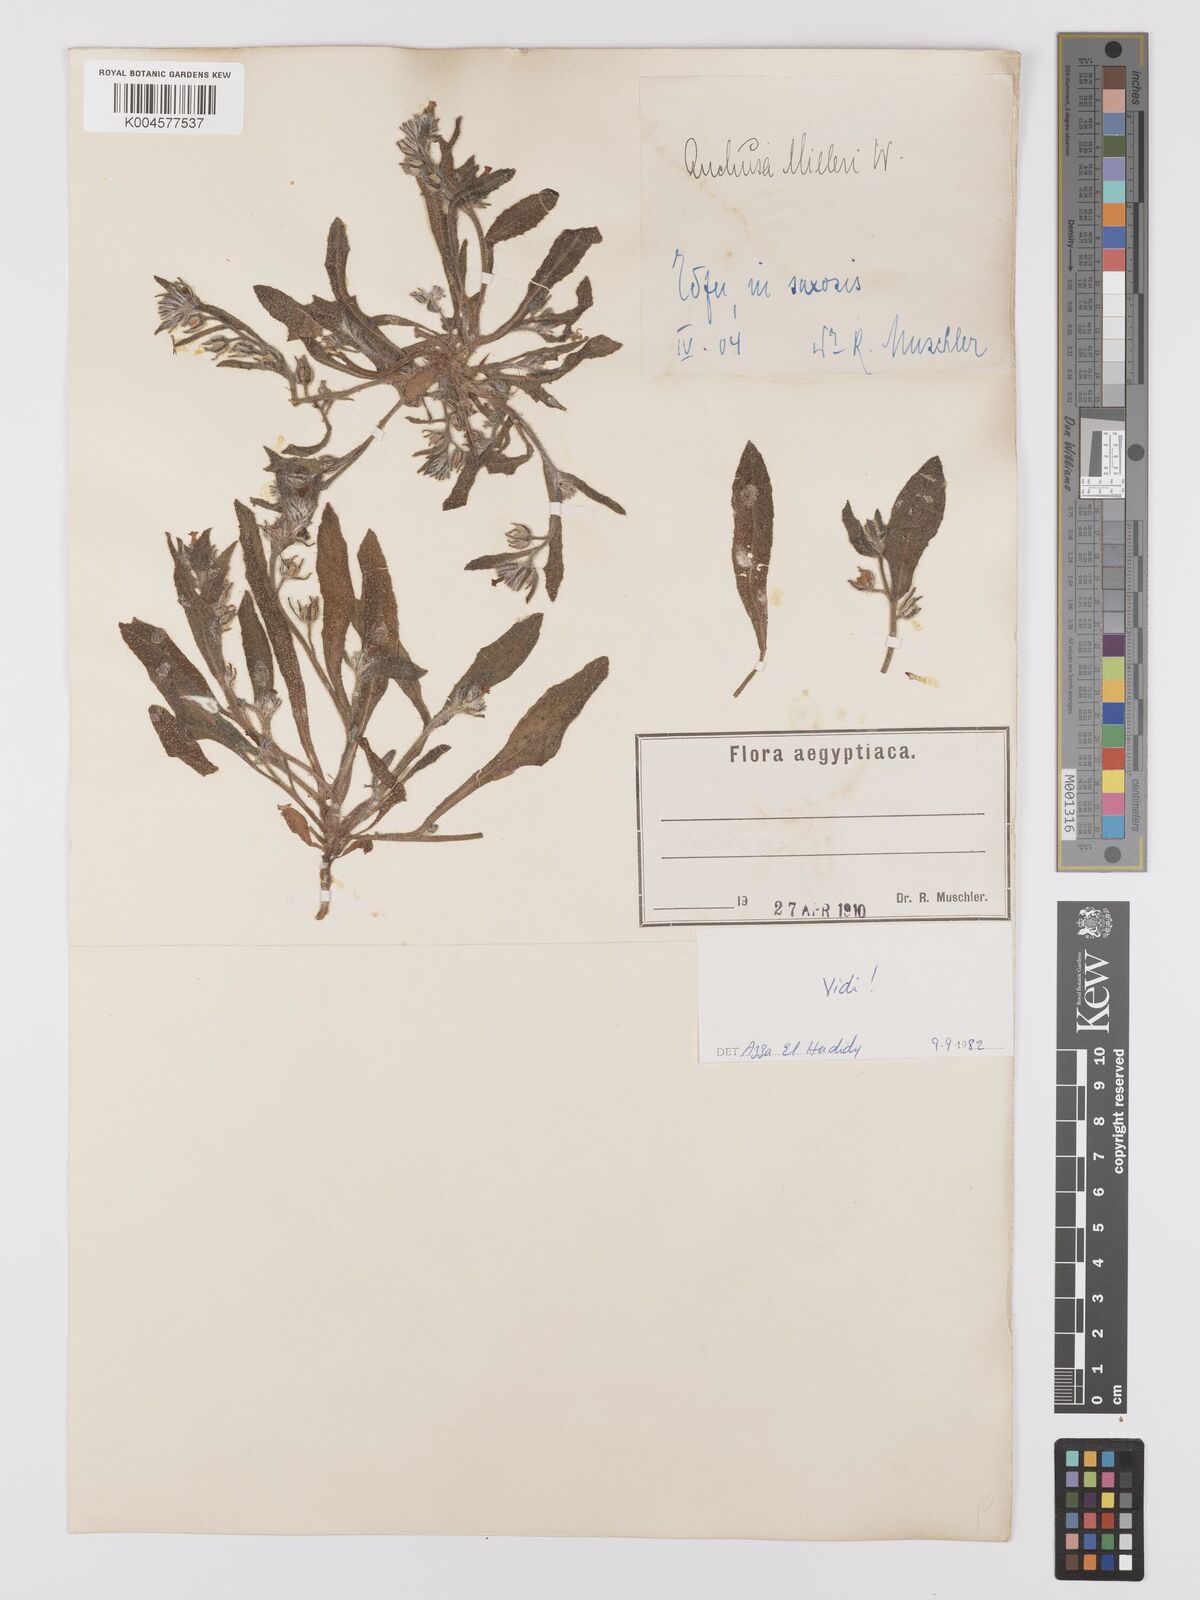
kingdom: Plantae
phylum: Tracheophyta
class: Magnoliopsida
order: Boraginales
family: Boraginaceae
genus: Anchusa
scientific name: Anchusa milleri
